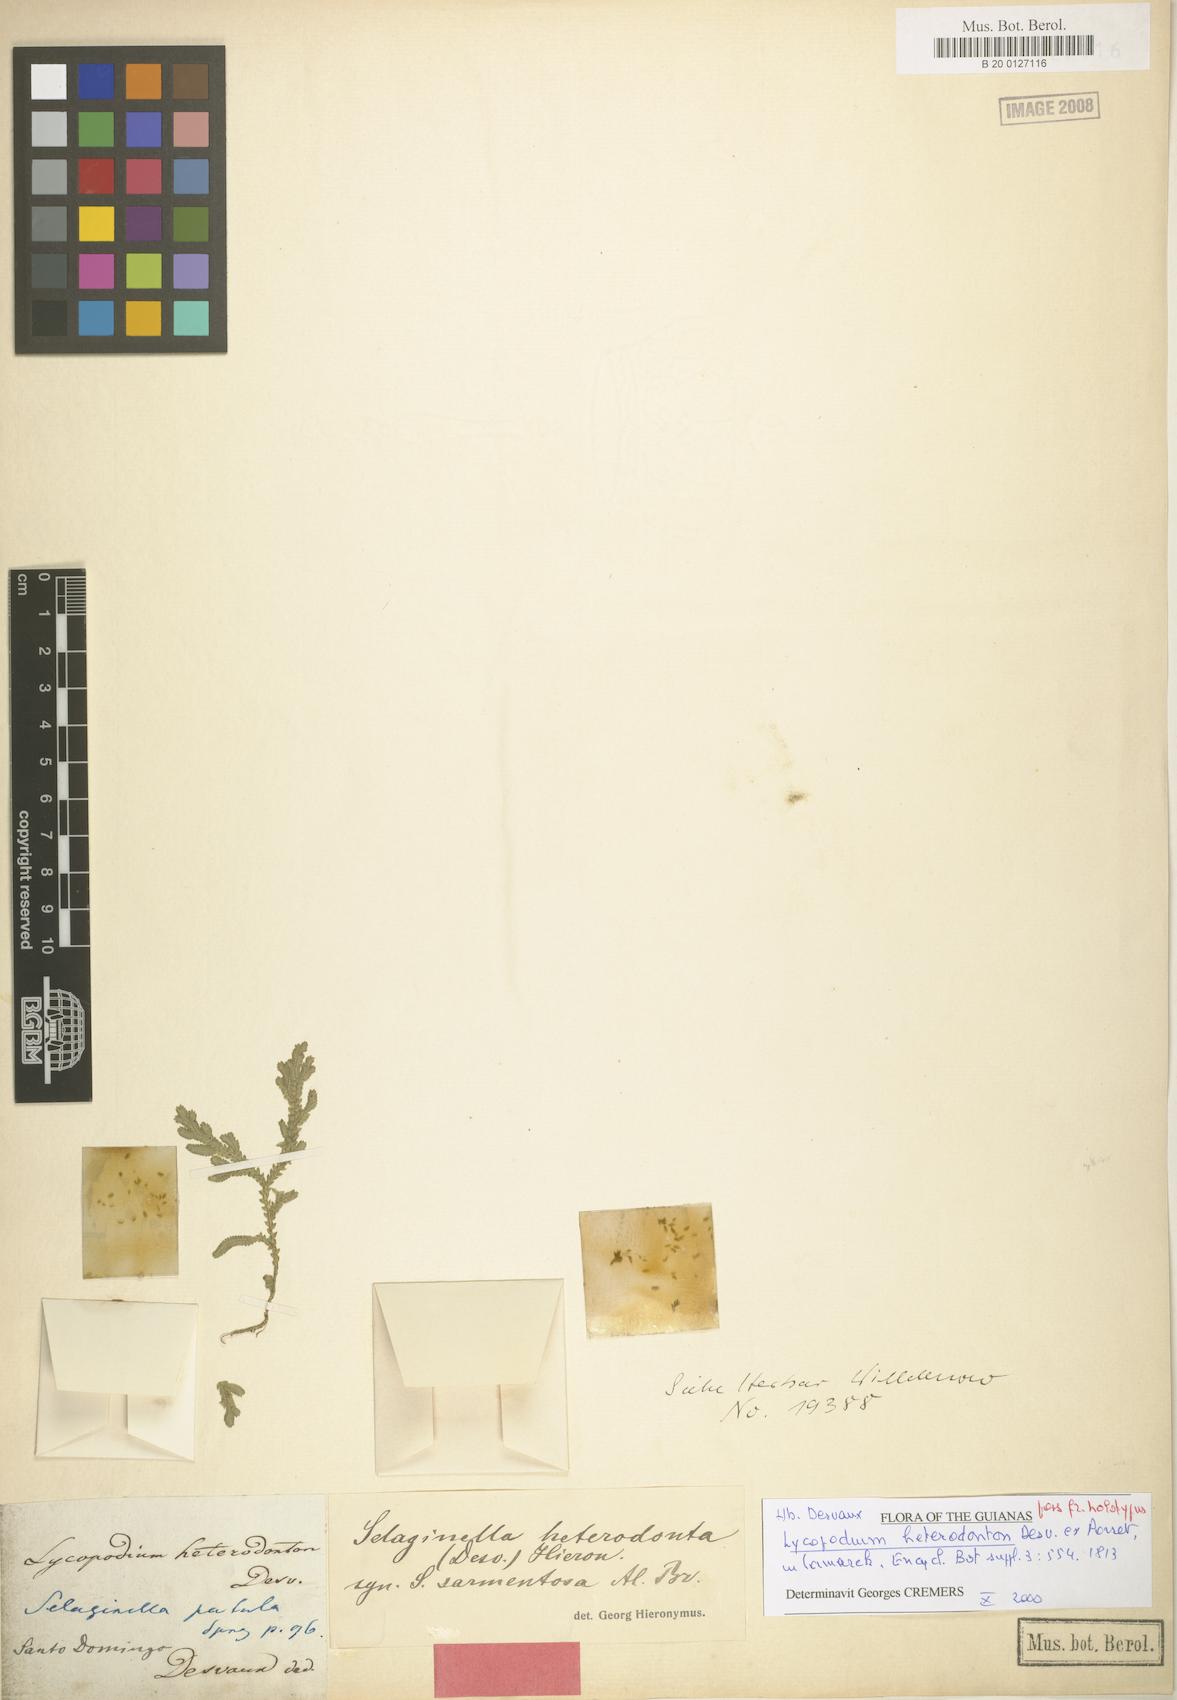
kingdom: Plantae
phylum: Tracheophyta
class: Lycopodiopsida
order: Selaginellales
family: Selaginellaceae
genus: Selaginella
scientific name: Selaginella heterodonta
